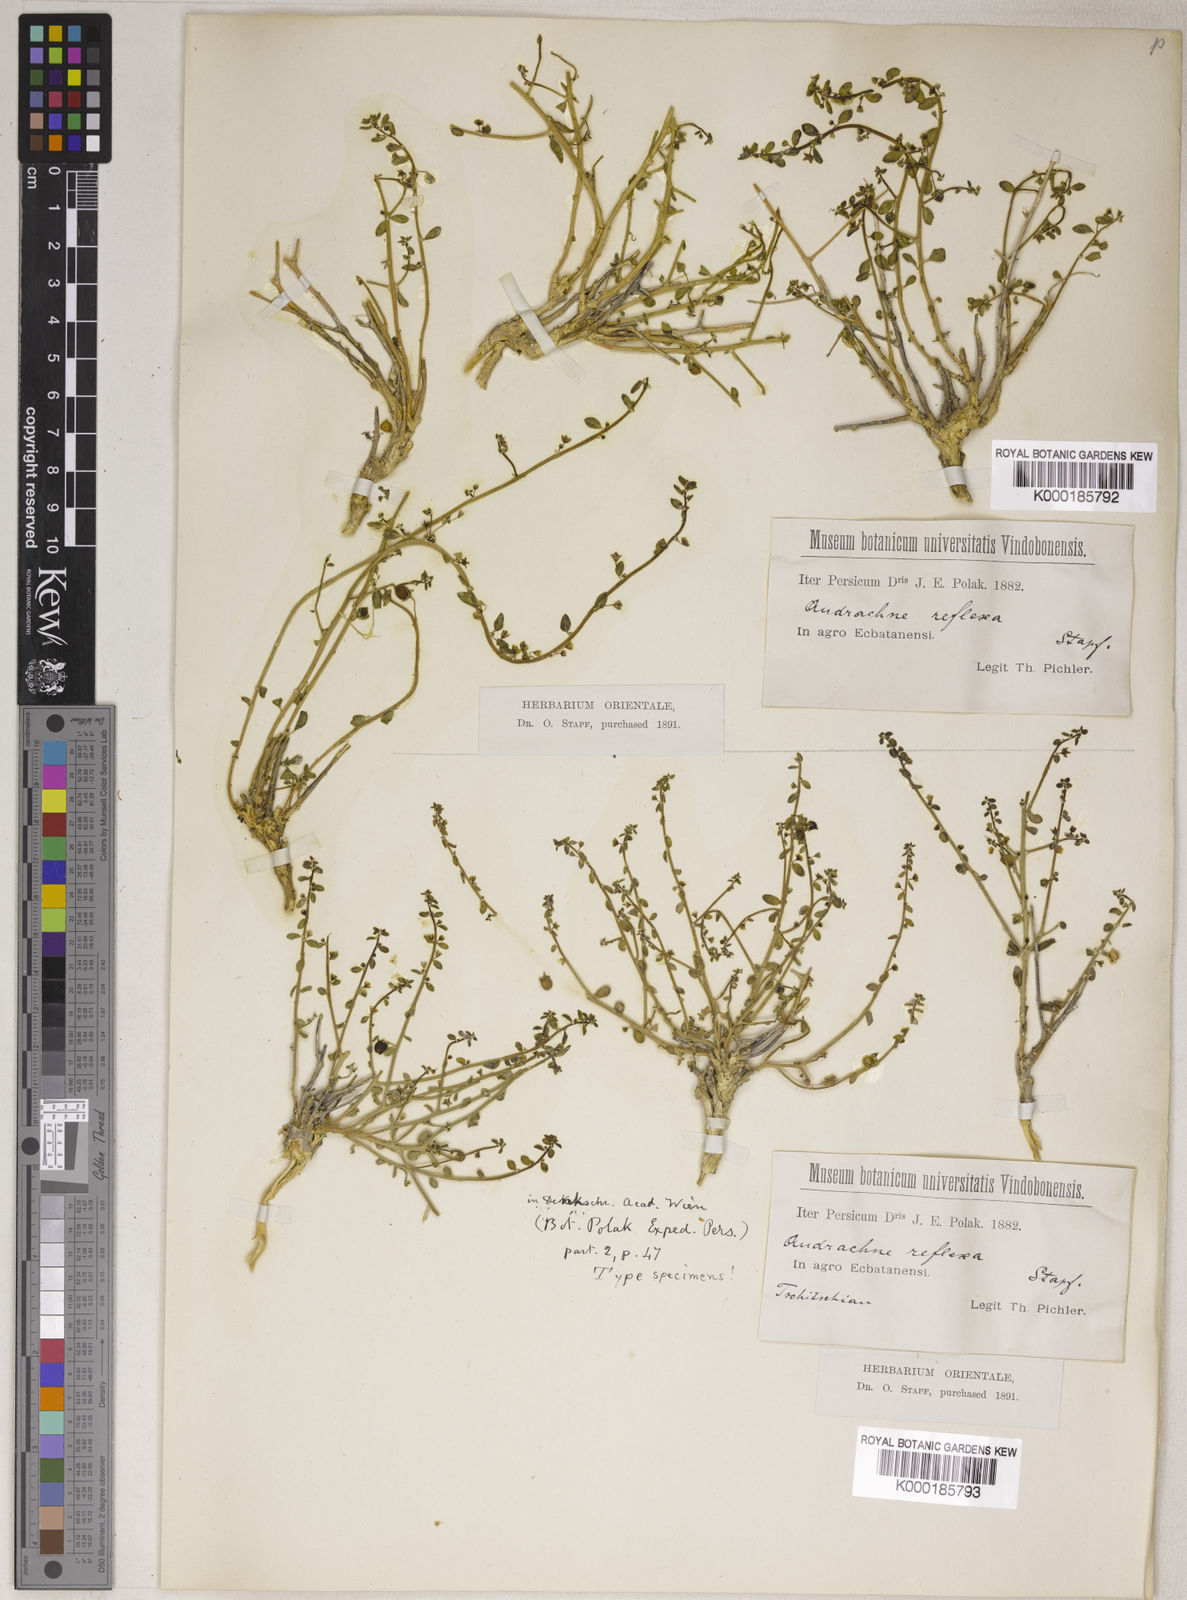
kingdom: Plantae
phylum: Tracheophyta
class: Magnoliopsida
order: Malpighiales
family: Phyllanthaceae
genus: Andrachne
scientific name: Andrachne reflexa
